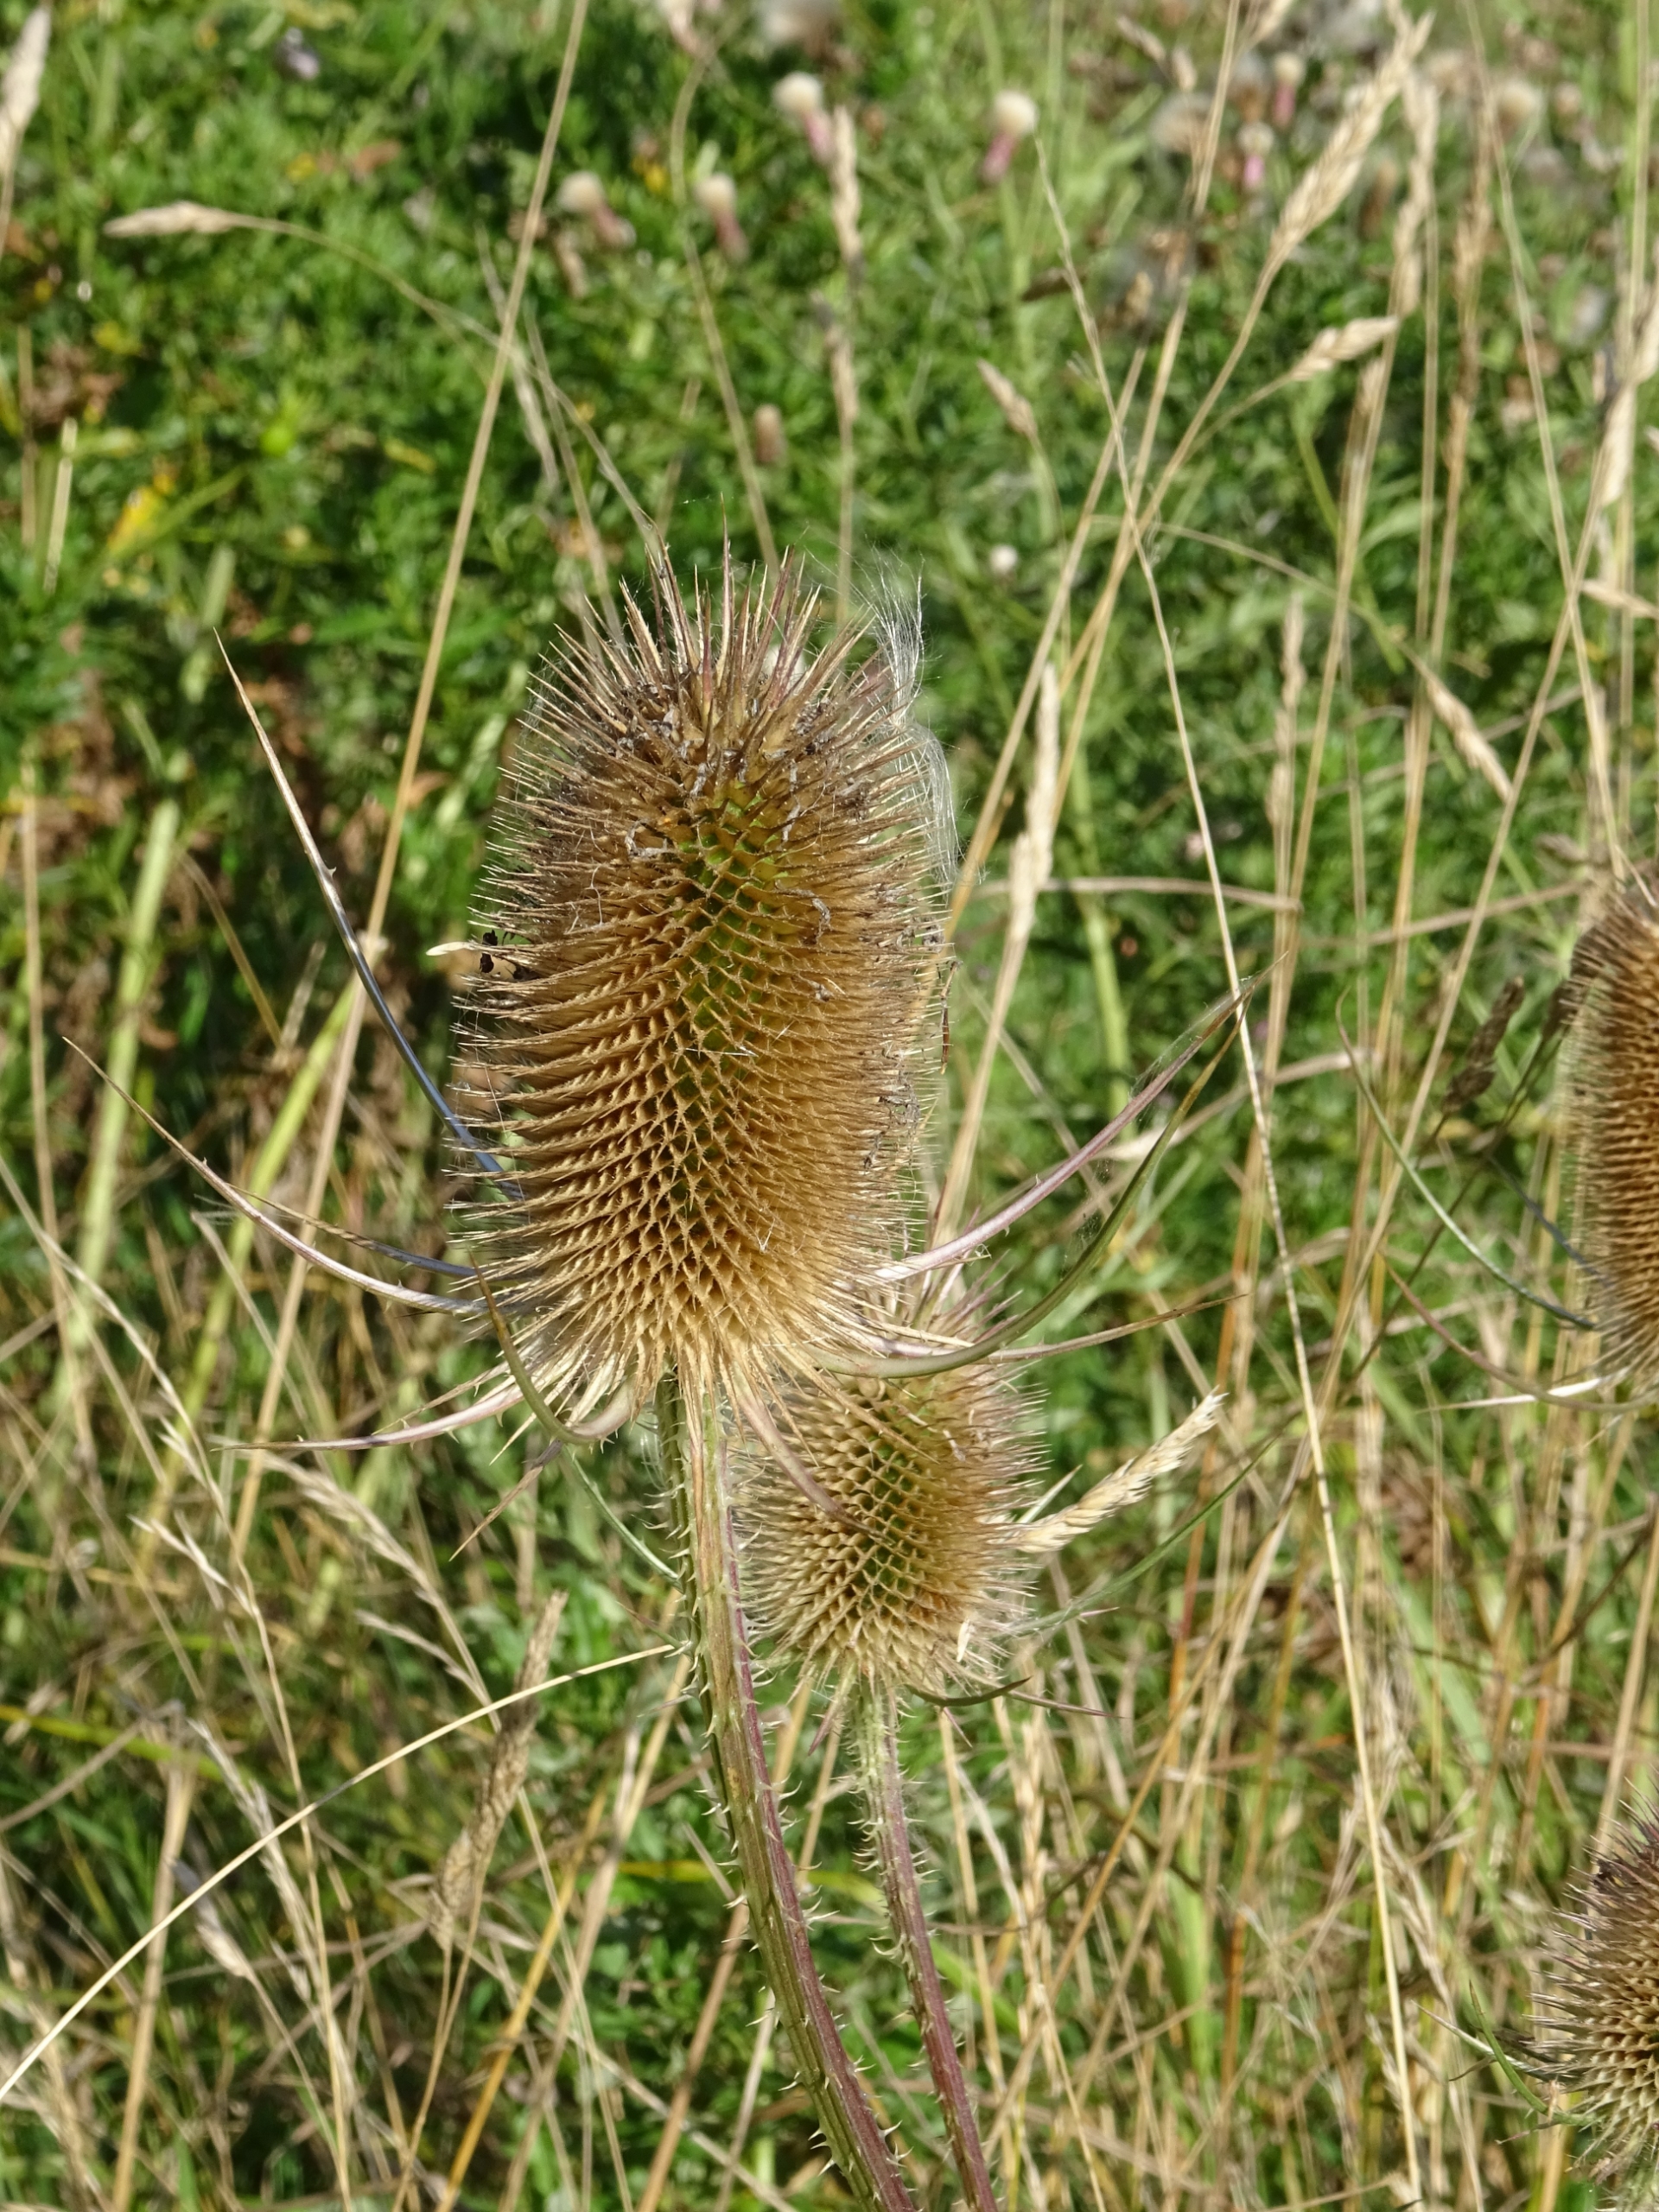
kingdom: Plantae
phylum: Tracheophyta
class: Magnoliopsida
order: Dipsacales
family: Caprifoliaceae
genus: Dipsacus
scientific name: Dipsacus fullonum
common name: Gærde-kartebolle
